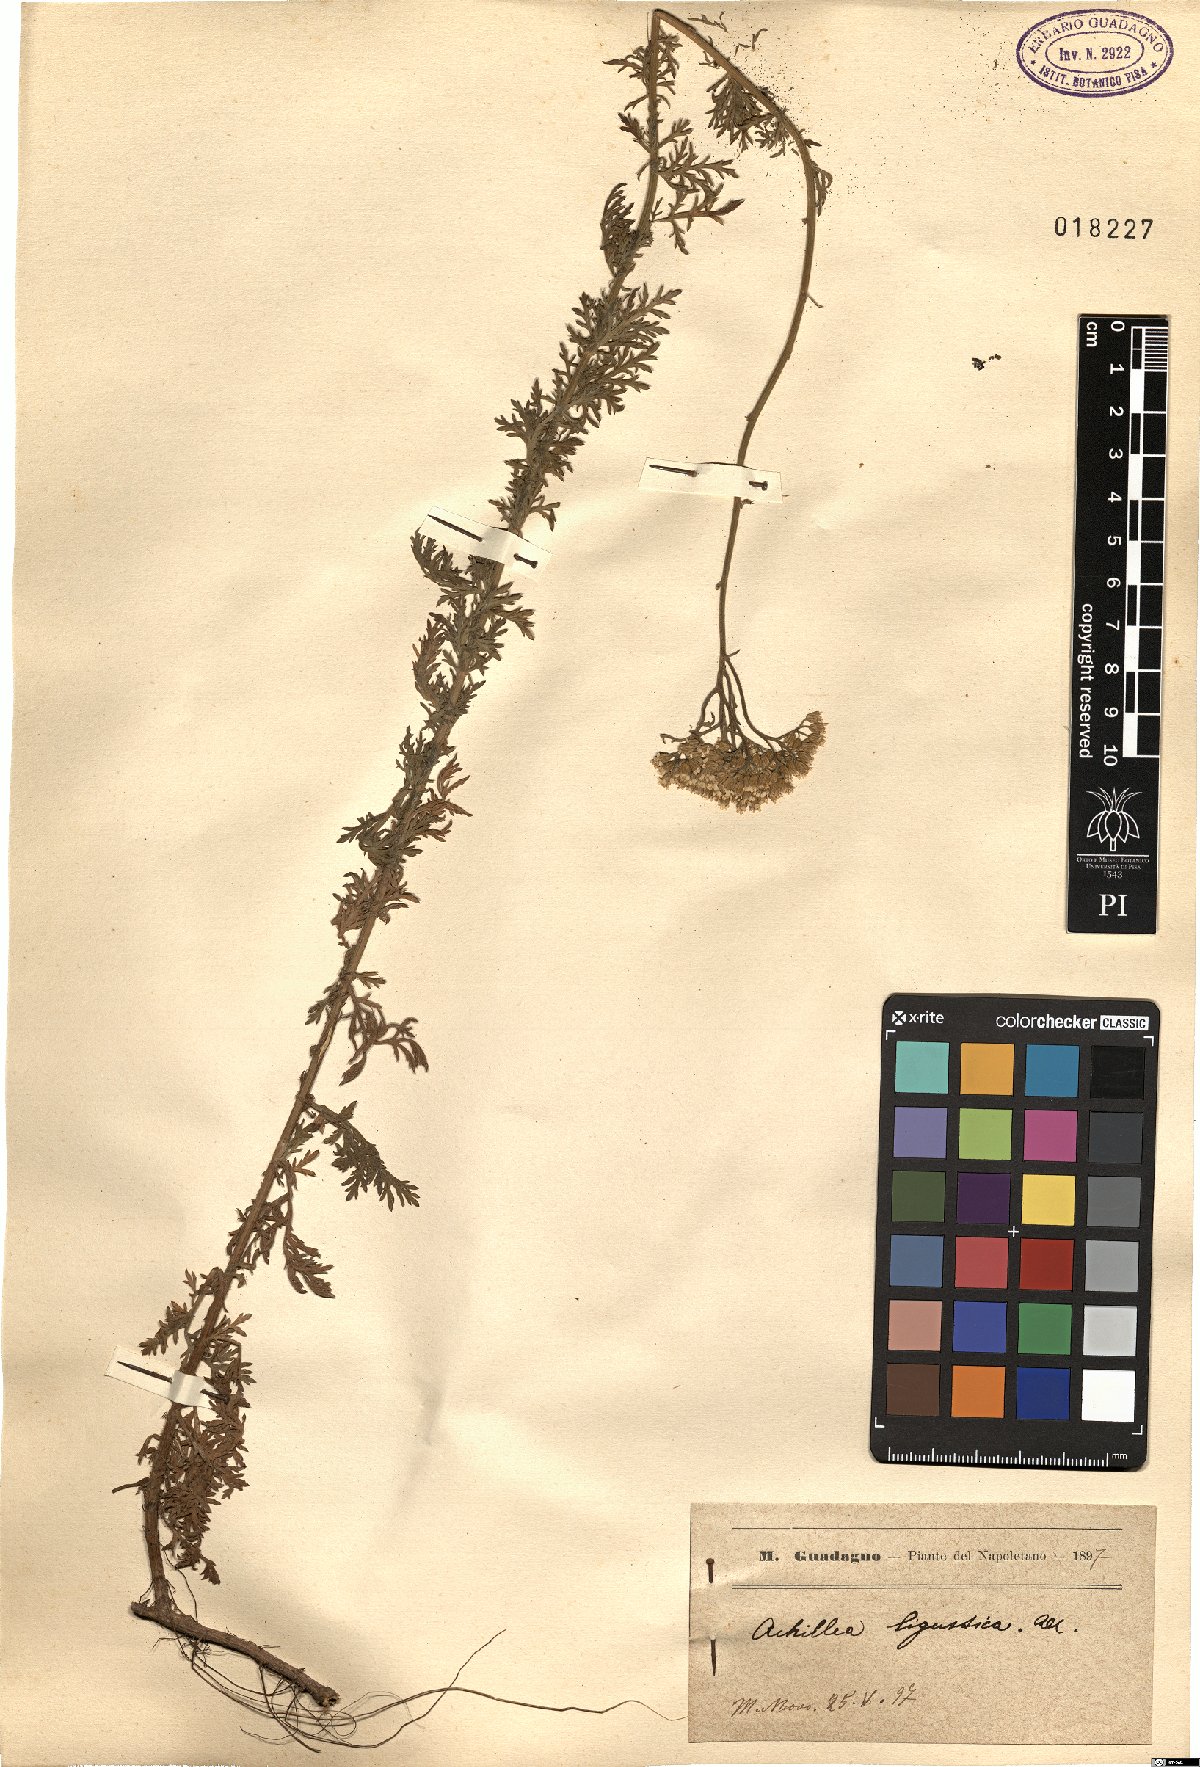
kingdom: Plantae
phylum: Tracheophyta
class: Magnoliopsida
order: Asterales
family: Asteraceae
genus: Achillea
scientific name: Achillea ligustica
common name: Southern yarrow
